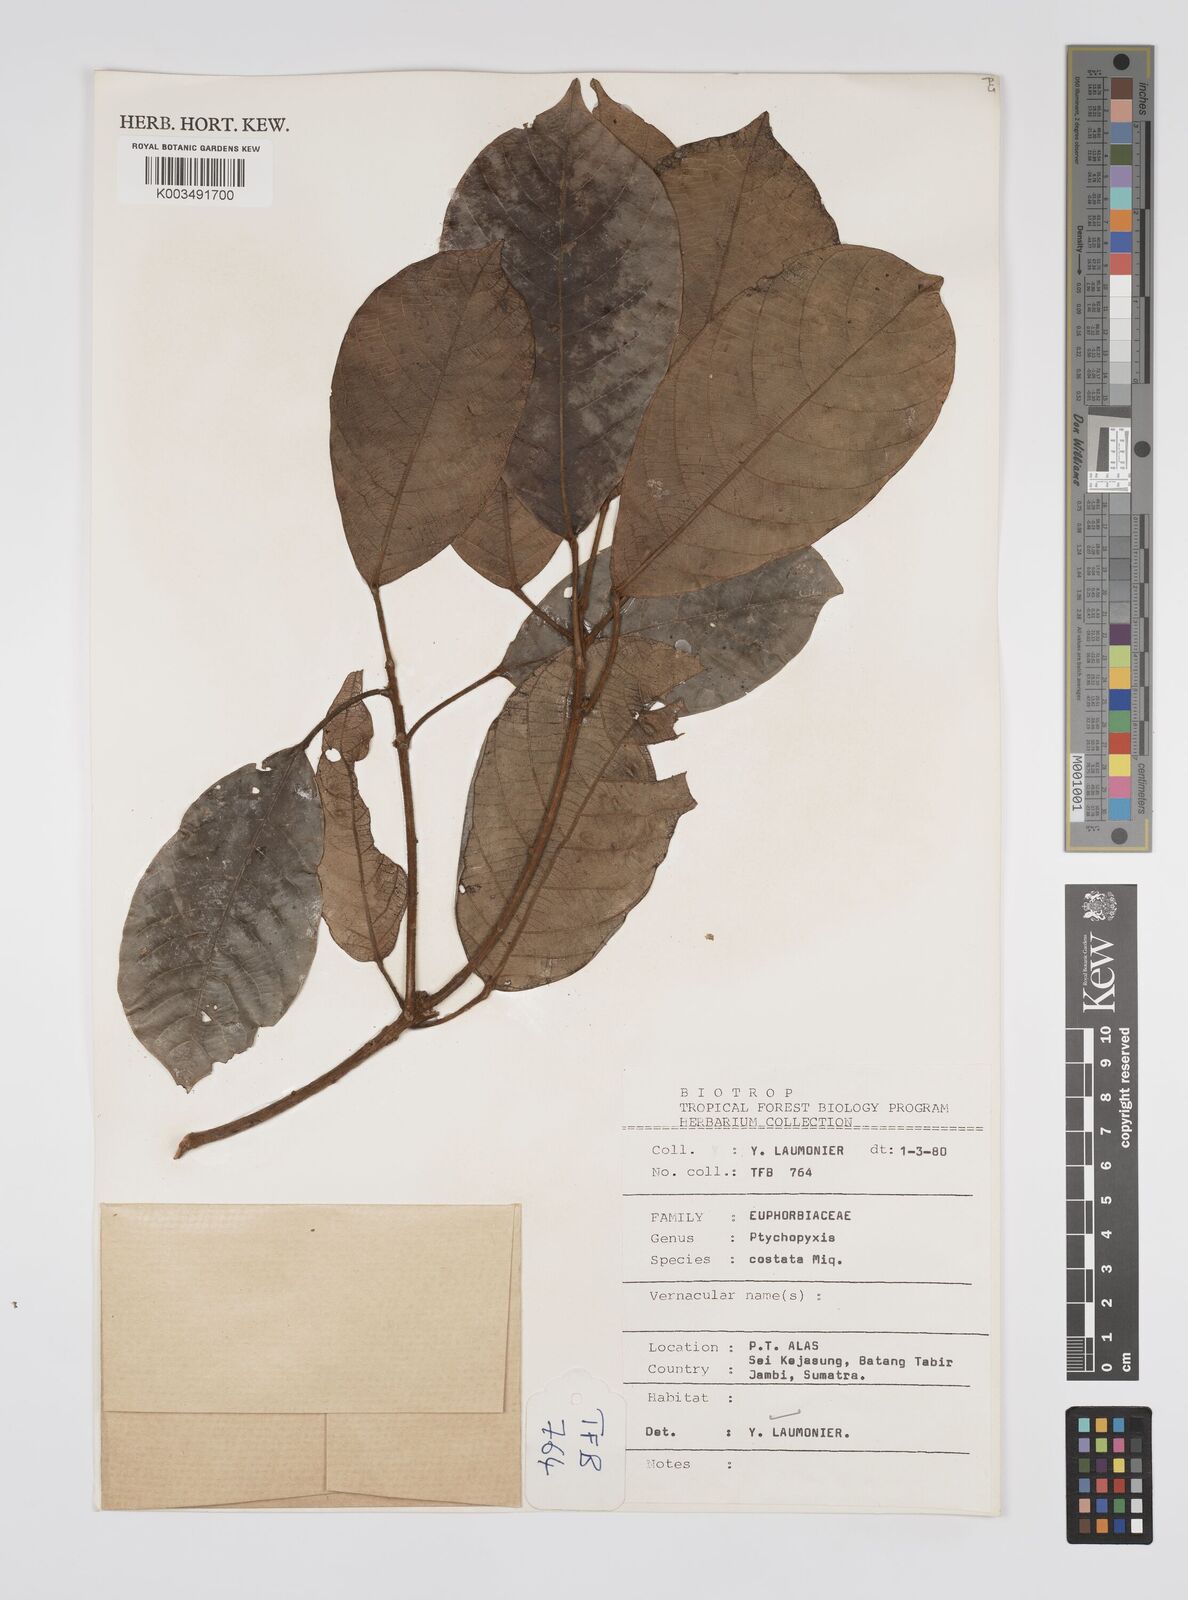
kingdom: Plantae
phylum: Tracheophyta
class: Magnoliopsida
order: Malpighiales
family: Euphorbiaceae
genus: Ptychopyxis
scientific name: Ptychopyxis costata
